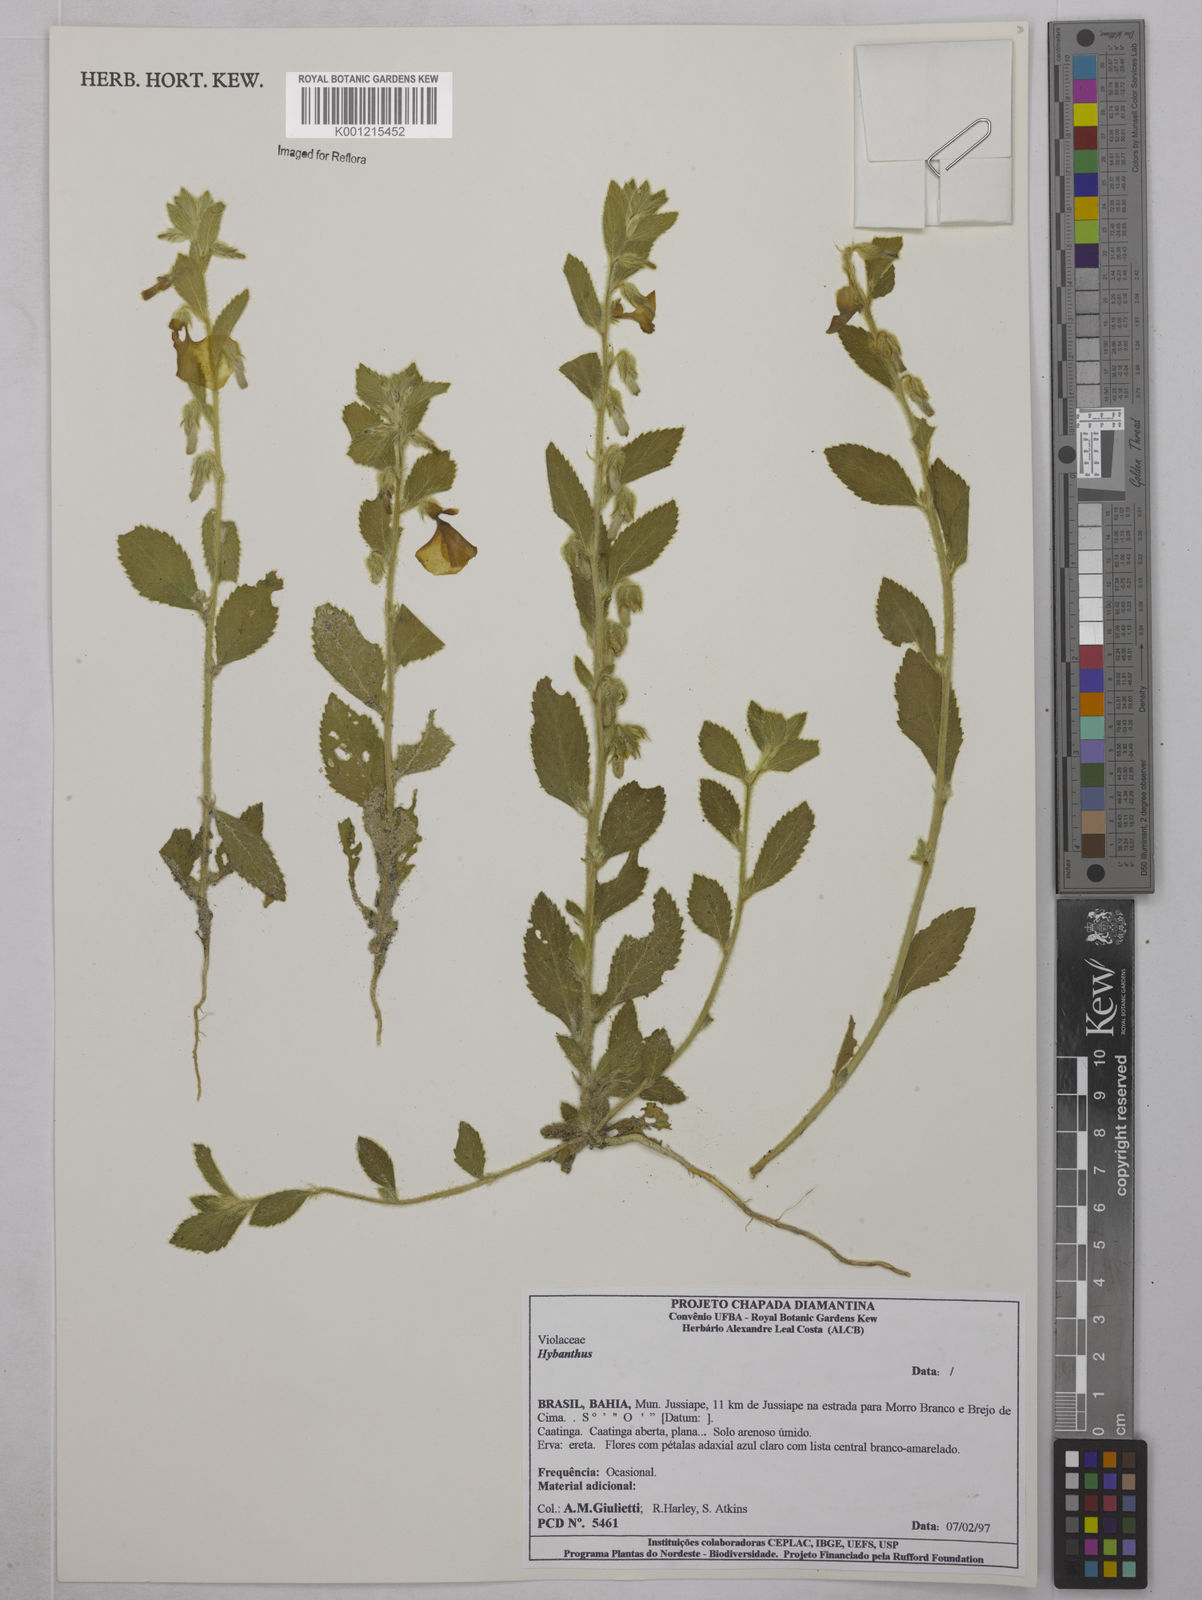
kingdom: Plantae
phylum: Tracheophyta
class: Magnoliopsida
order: Malpighiales
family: Violaceae
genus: Hybanthus
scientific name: Hybanthus
